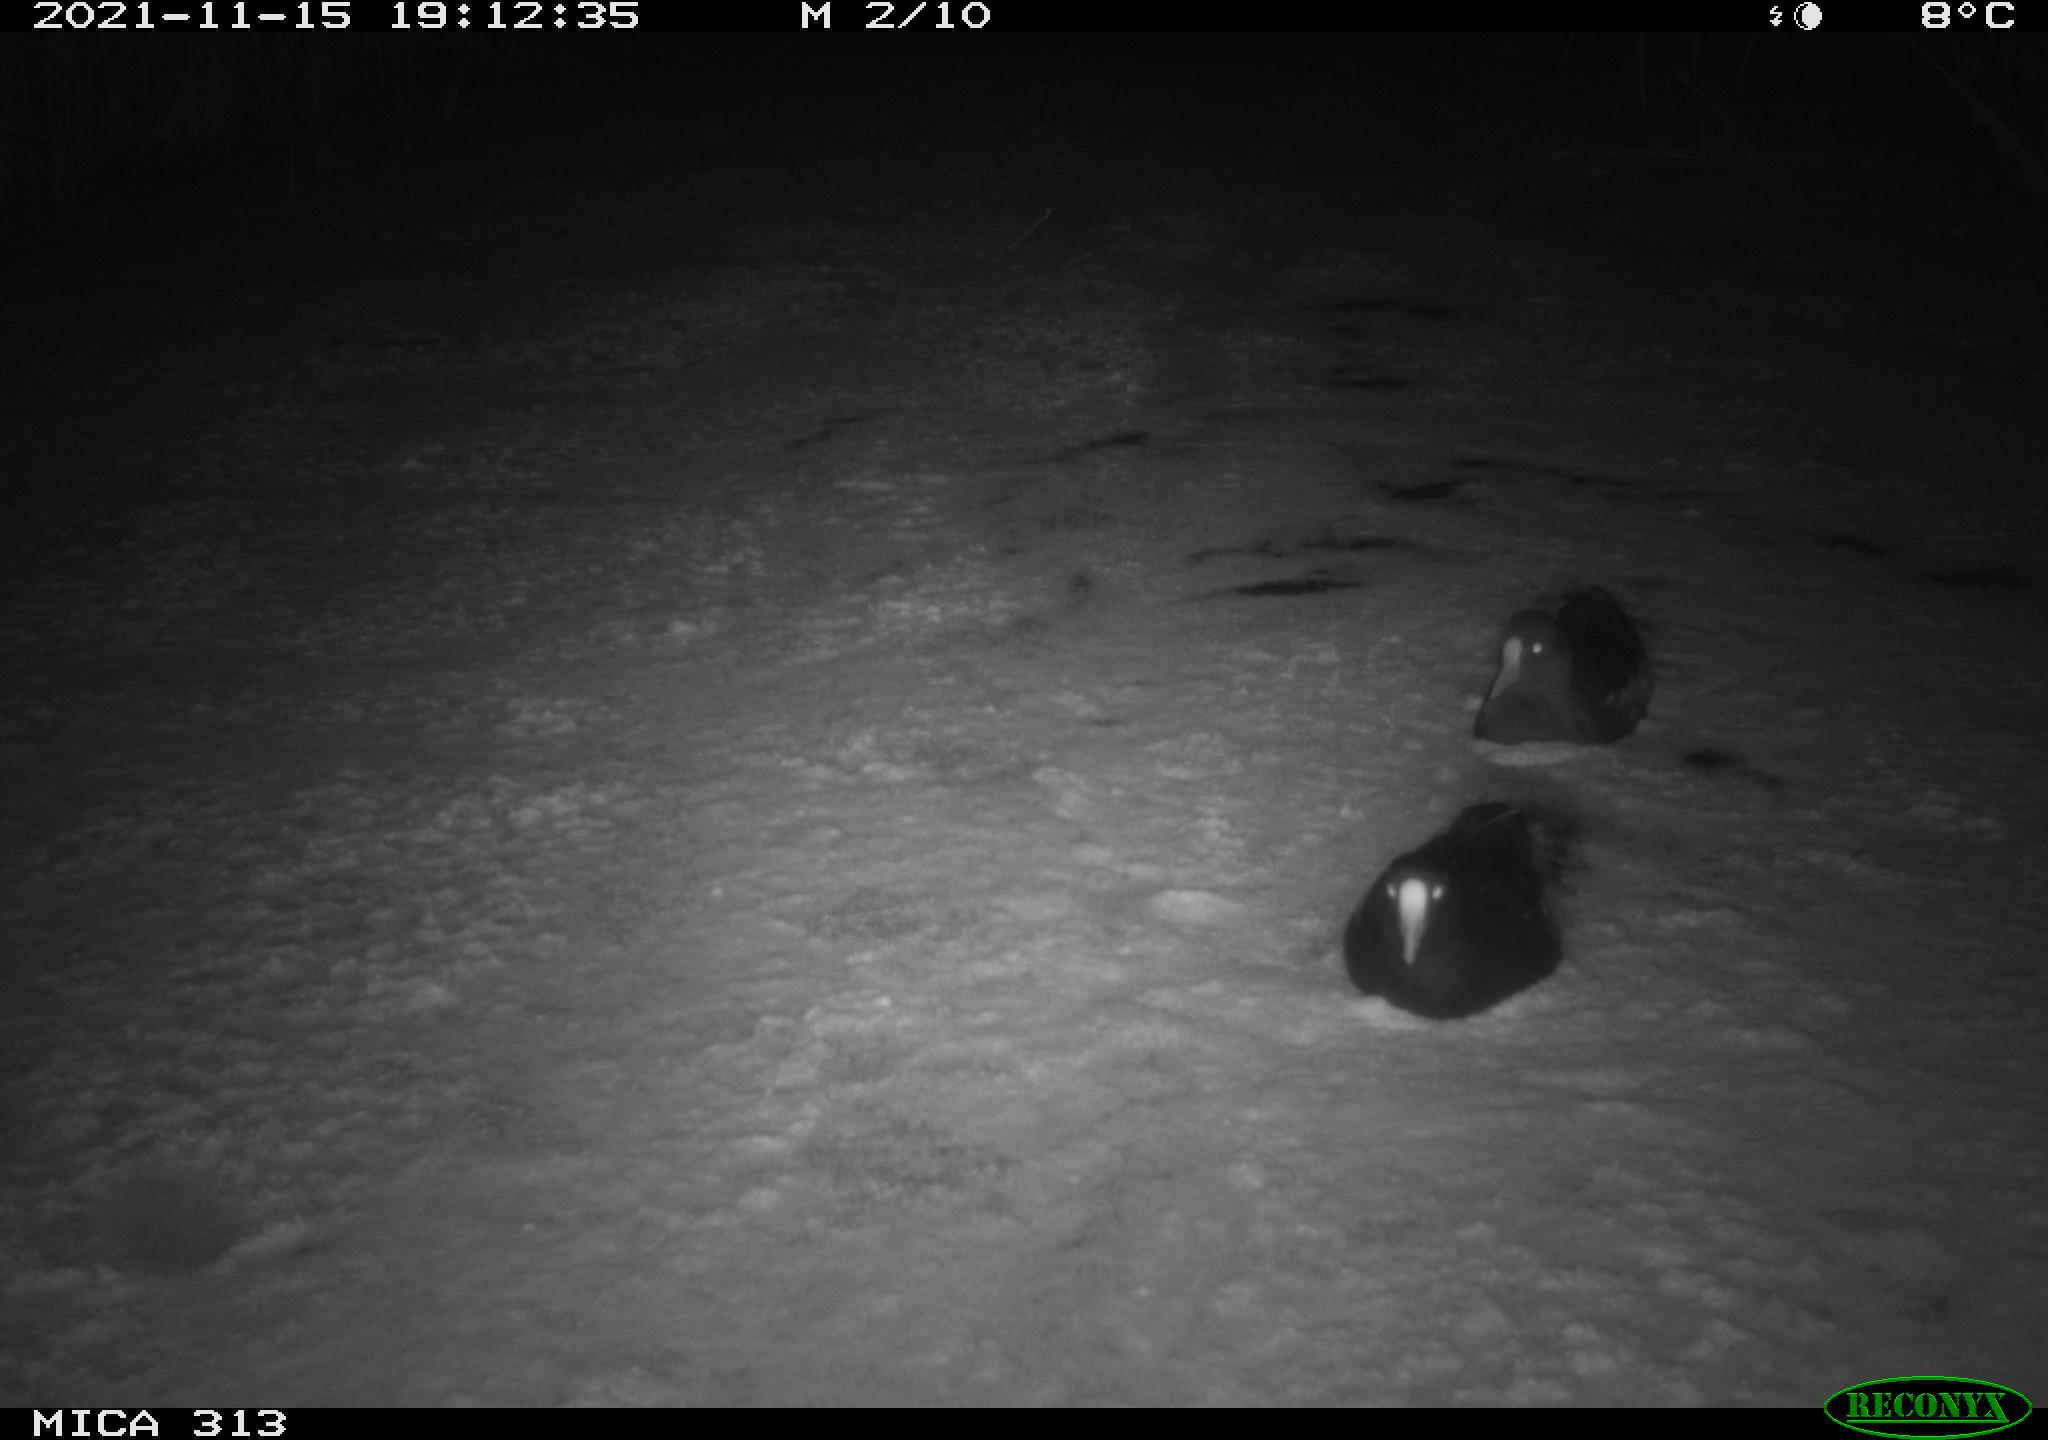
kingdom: Animalia
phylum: Chordata
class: Aves
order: Gruiformes
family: Rallidae
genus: Fulica
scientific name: Fulica atra
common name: Eurasian coot
